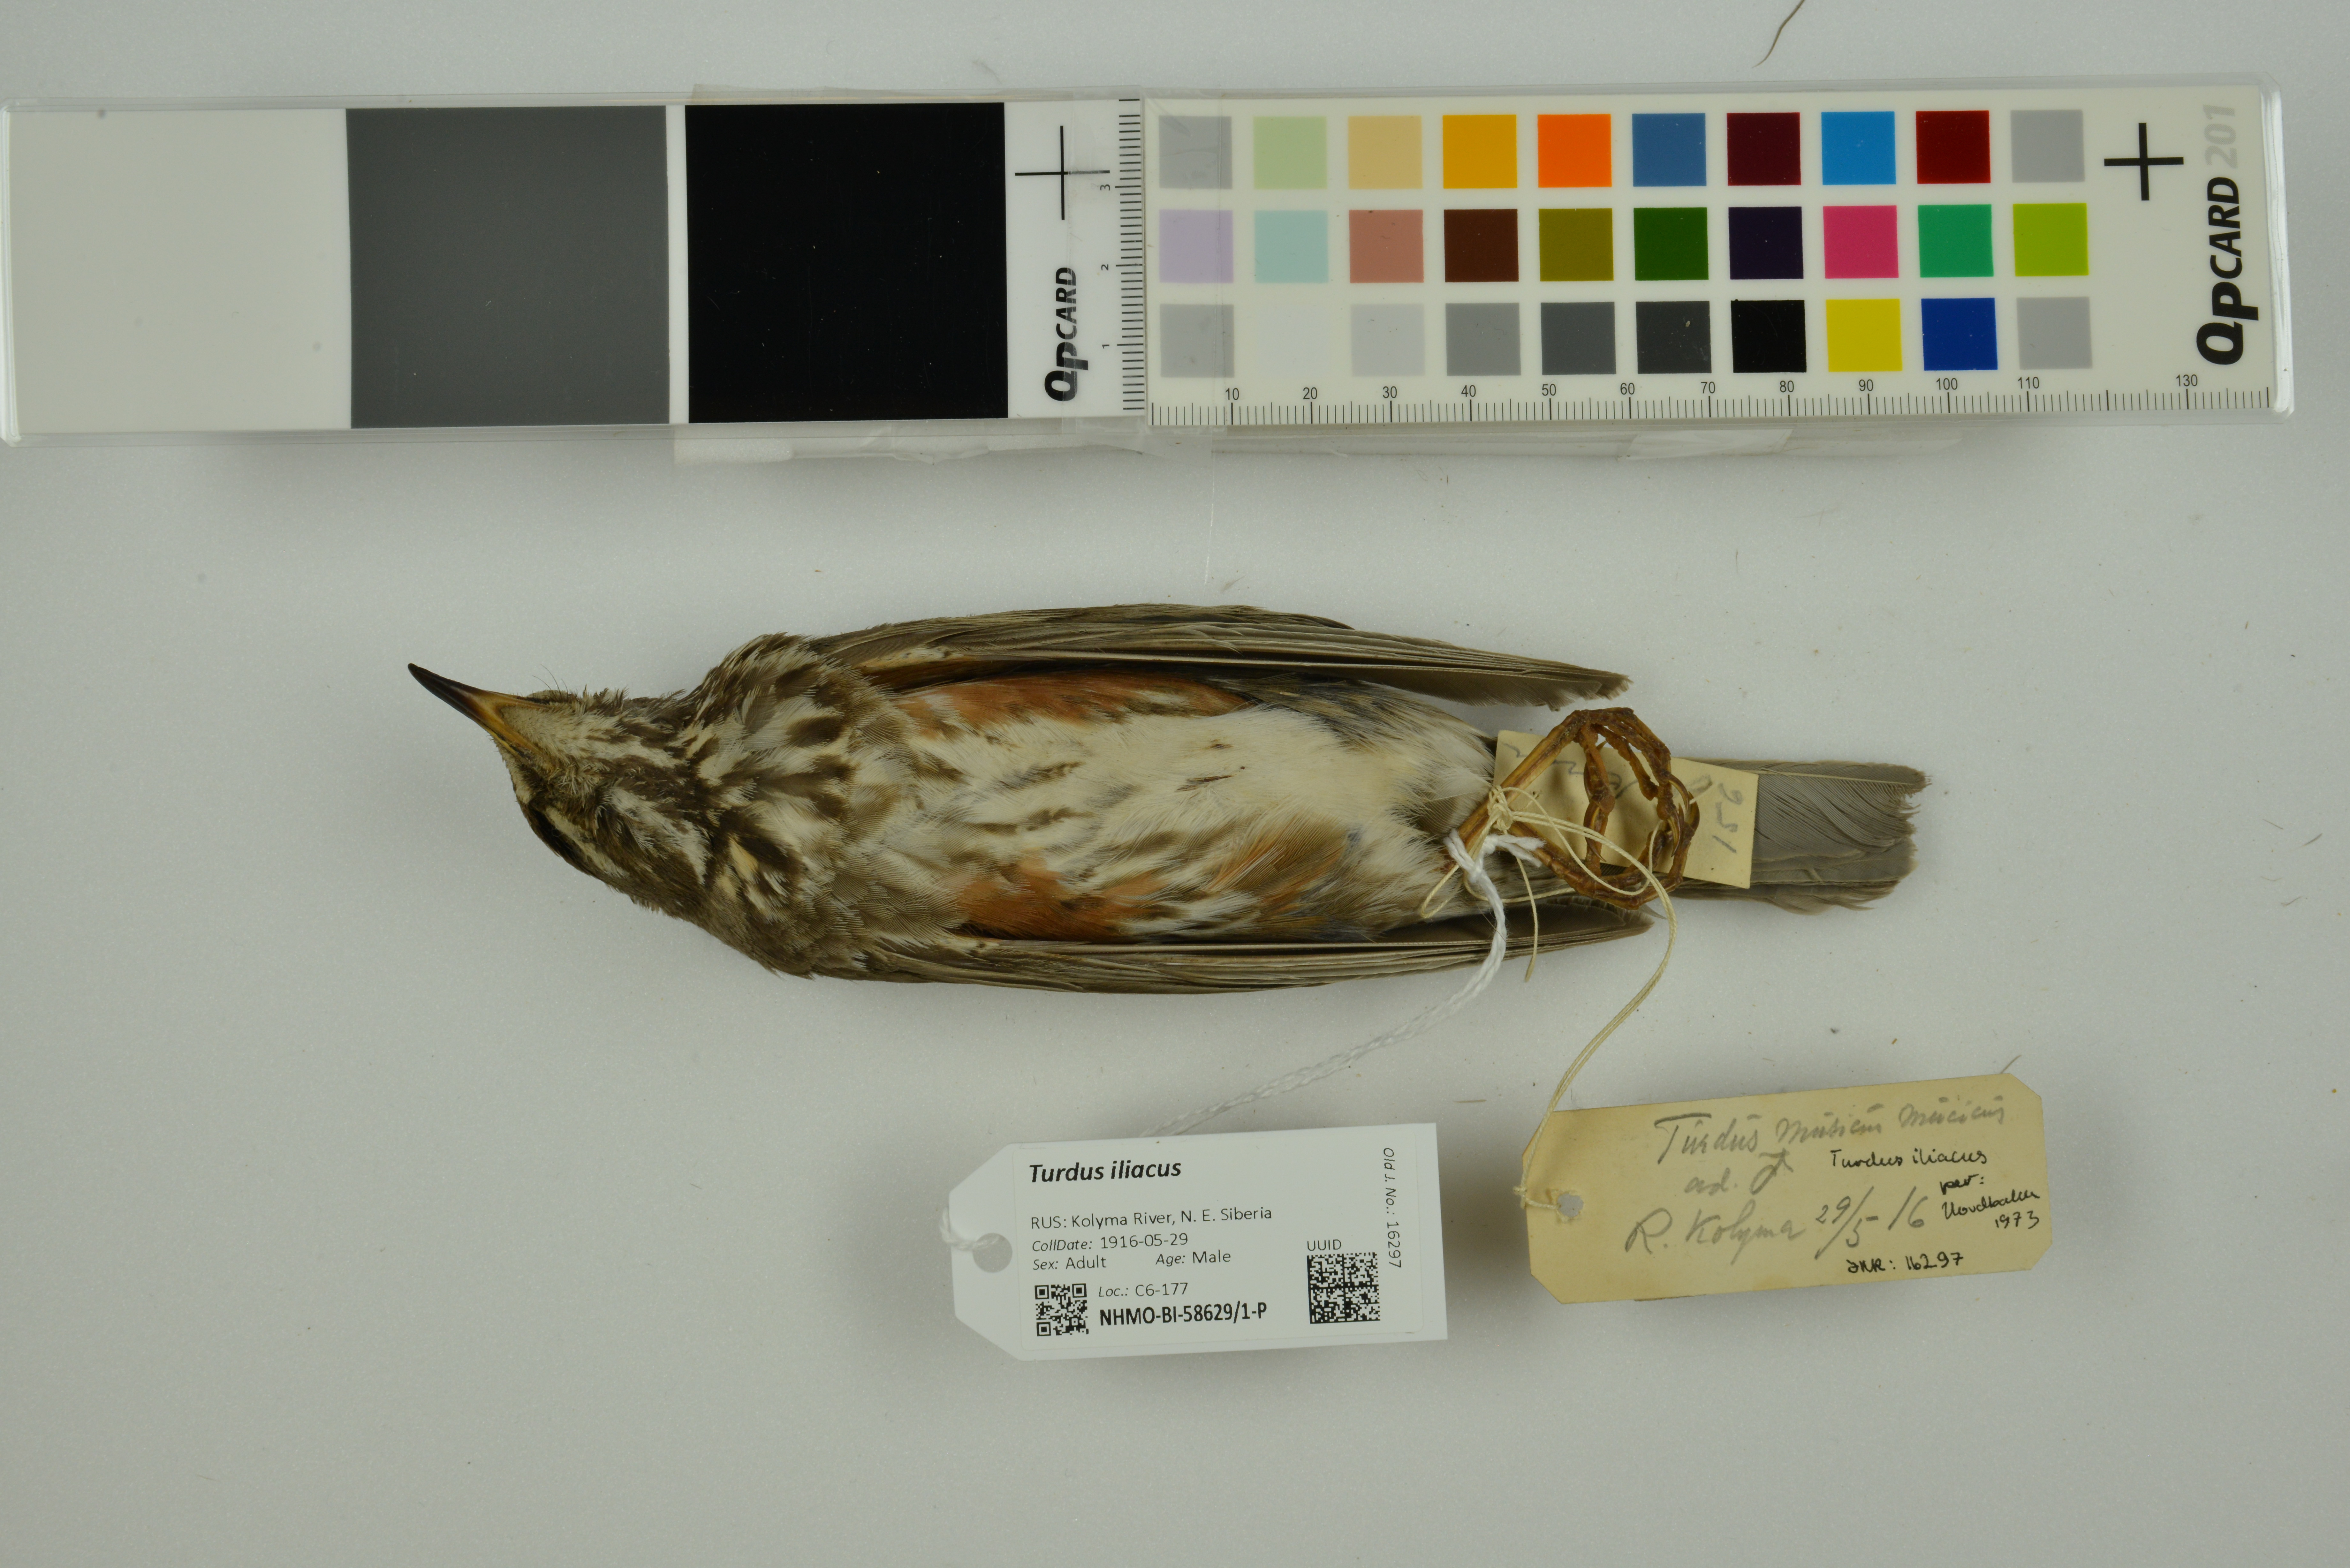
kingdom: Animalia
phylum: Chordata
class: Aves
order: Passeriformes
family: Turdidae
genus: Turdus
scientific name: Turdus iliacus
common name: Redwing
